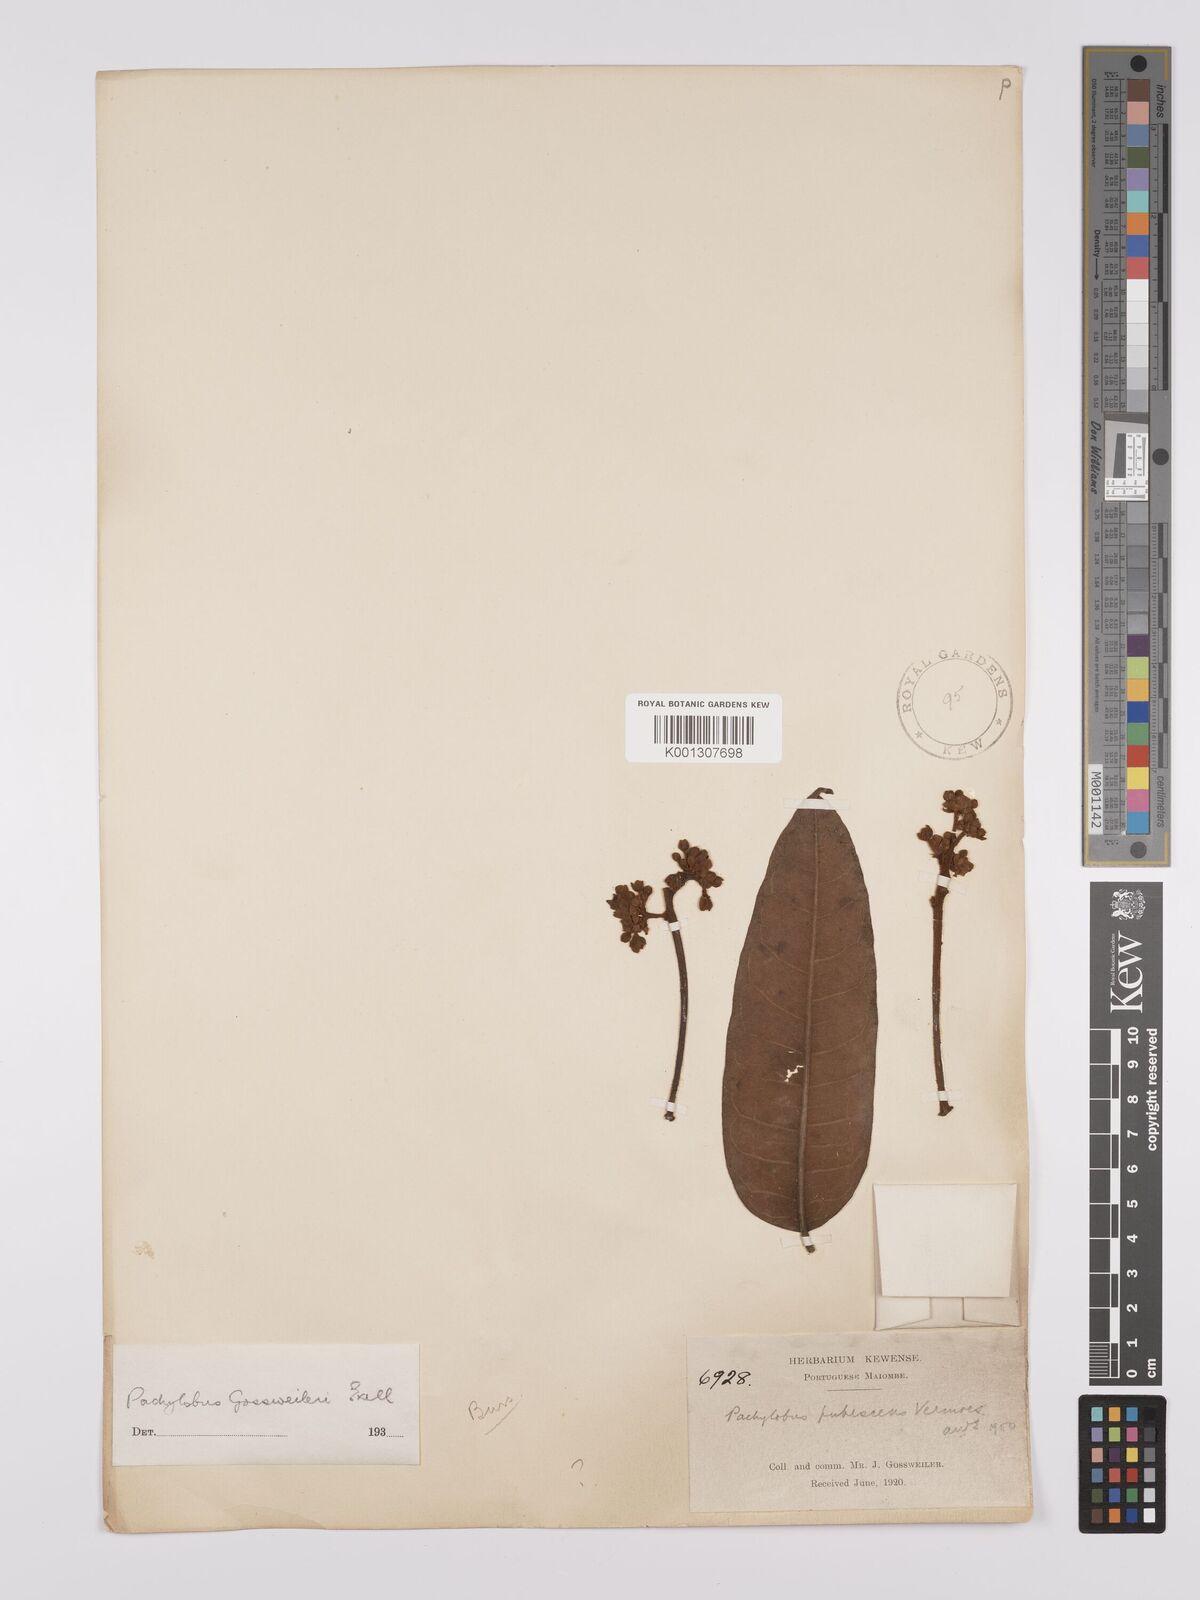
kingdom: Plantae
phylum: Tracheophyta
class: Magnoliopsida
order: Sapindales
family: Burseraceae
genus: Dacryodes
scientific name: Dacryodes
